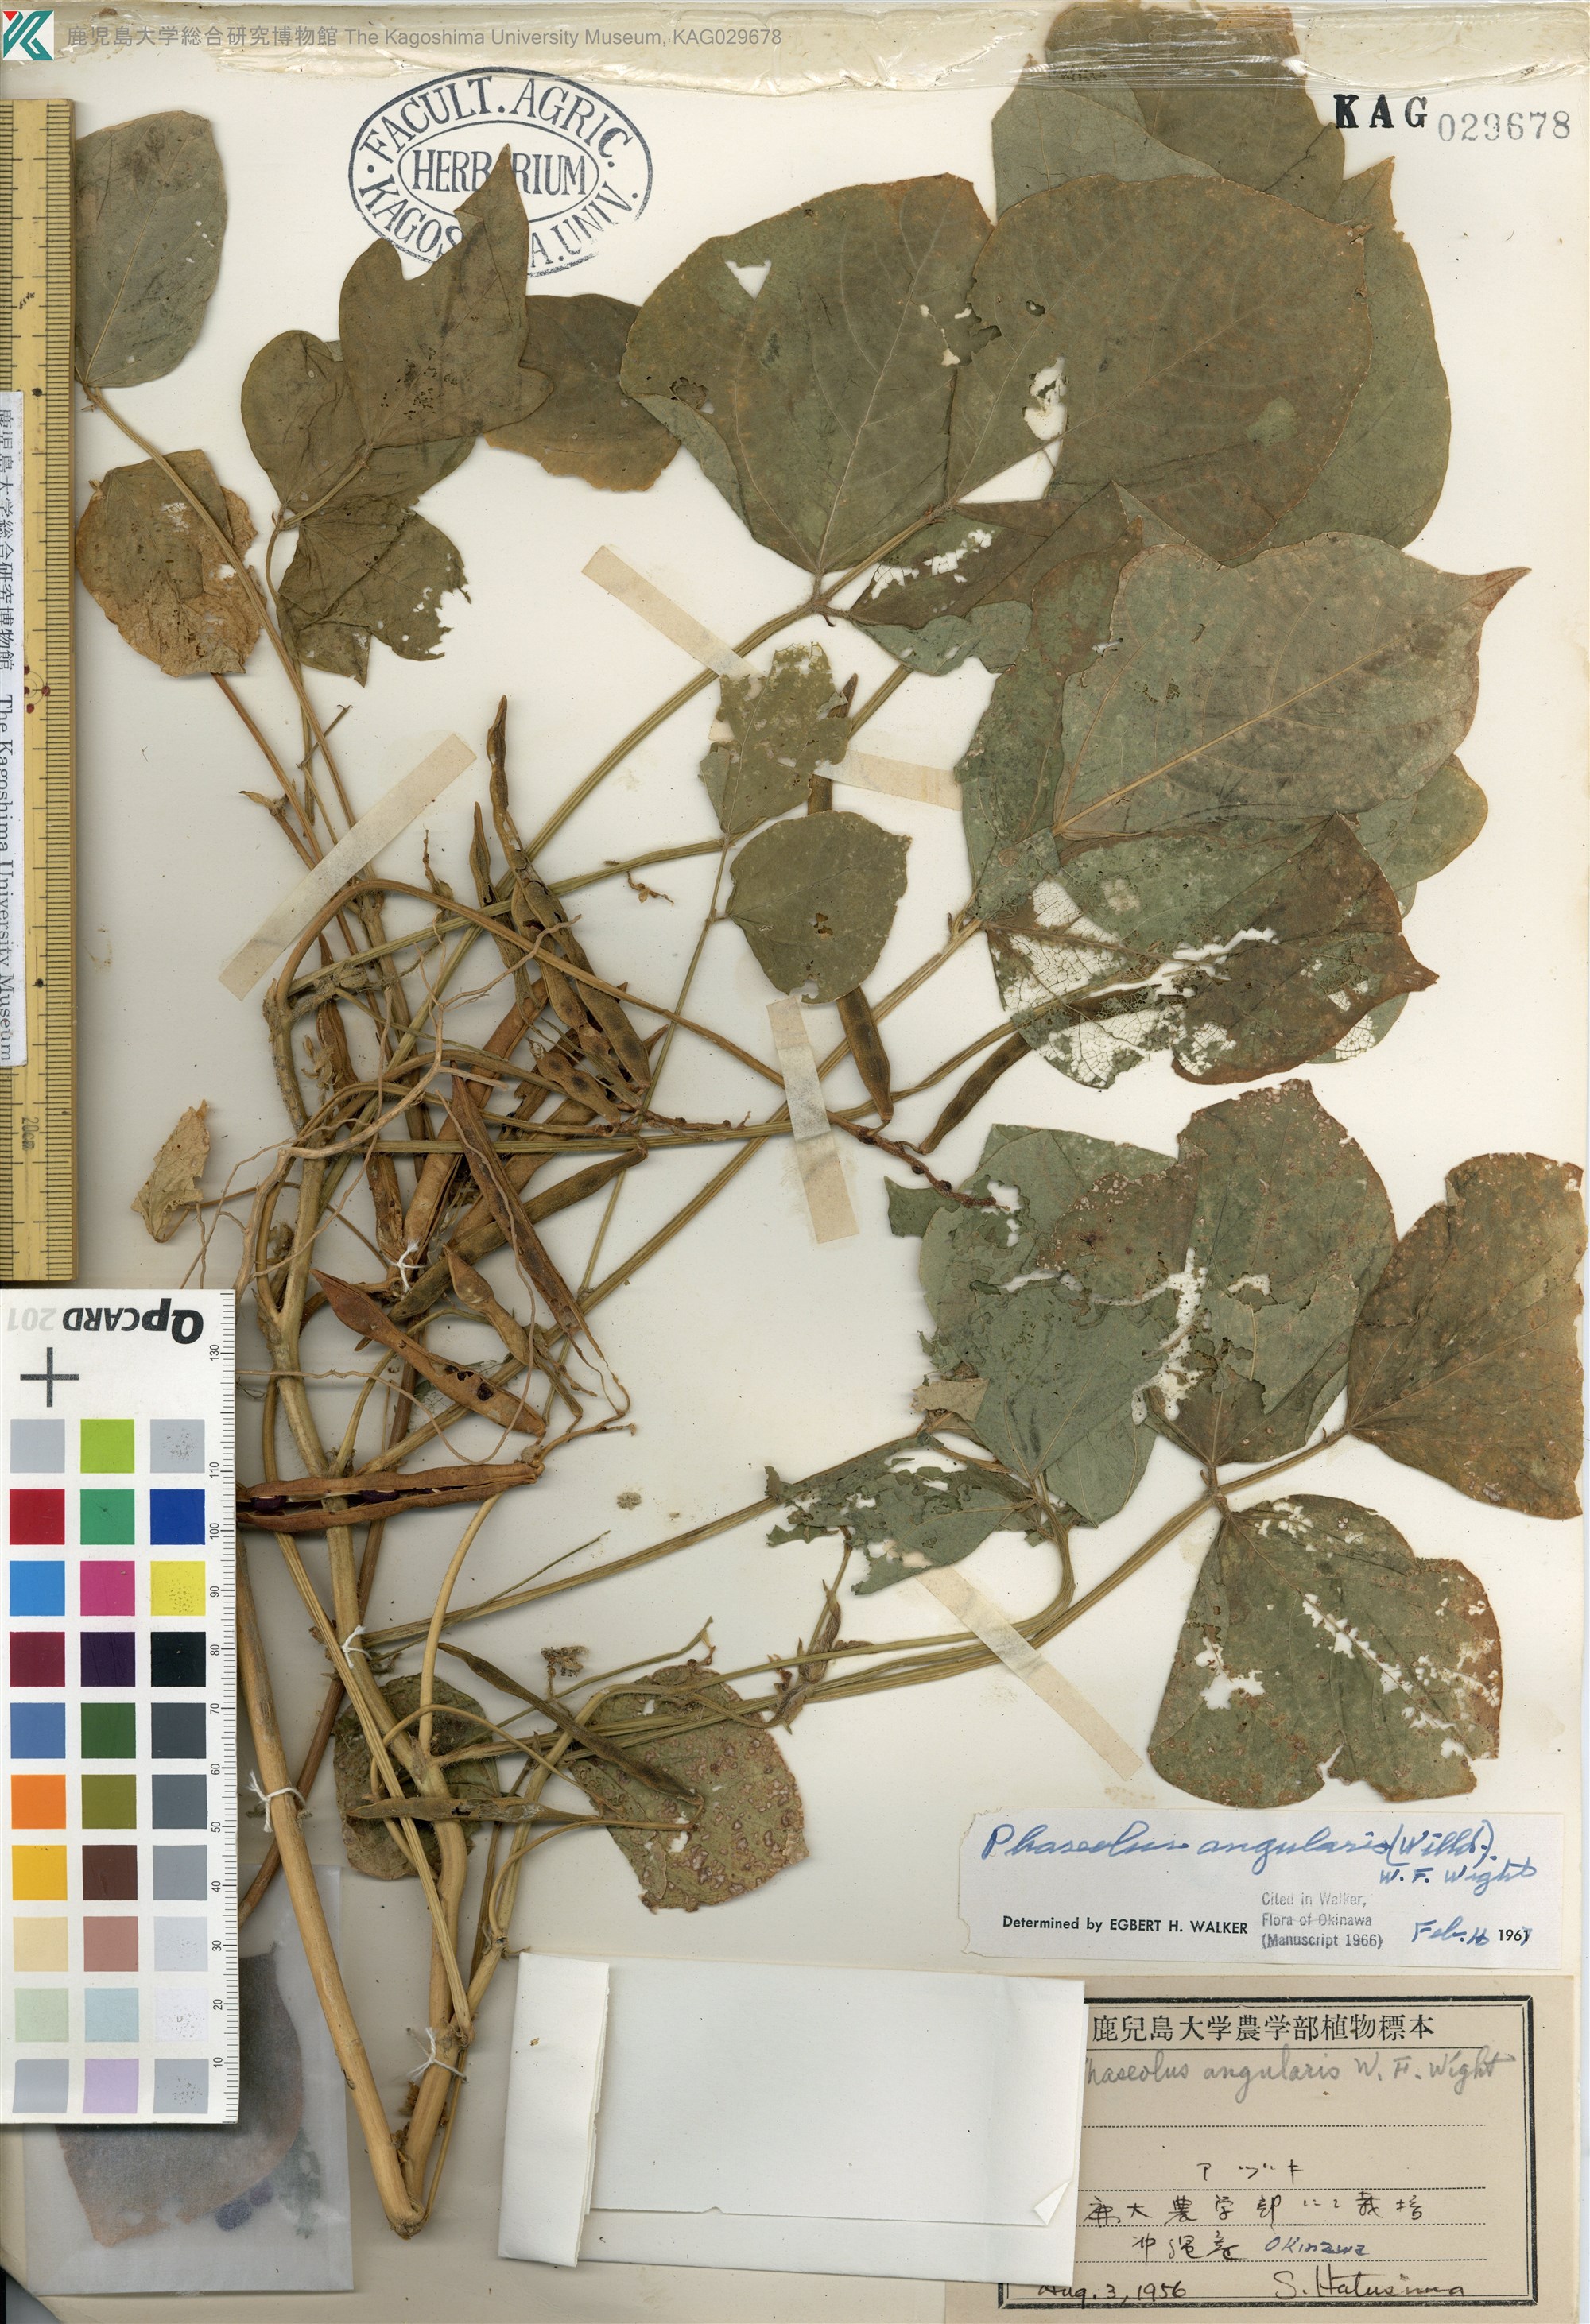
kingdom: Plantae
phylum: Tracheophyta
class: Magnoliopsida
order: Fabales
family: Fabaceae
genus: Vigna
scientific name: Vigna angularis
